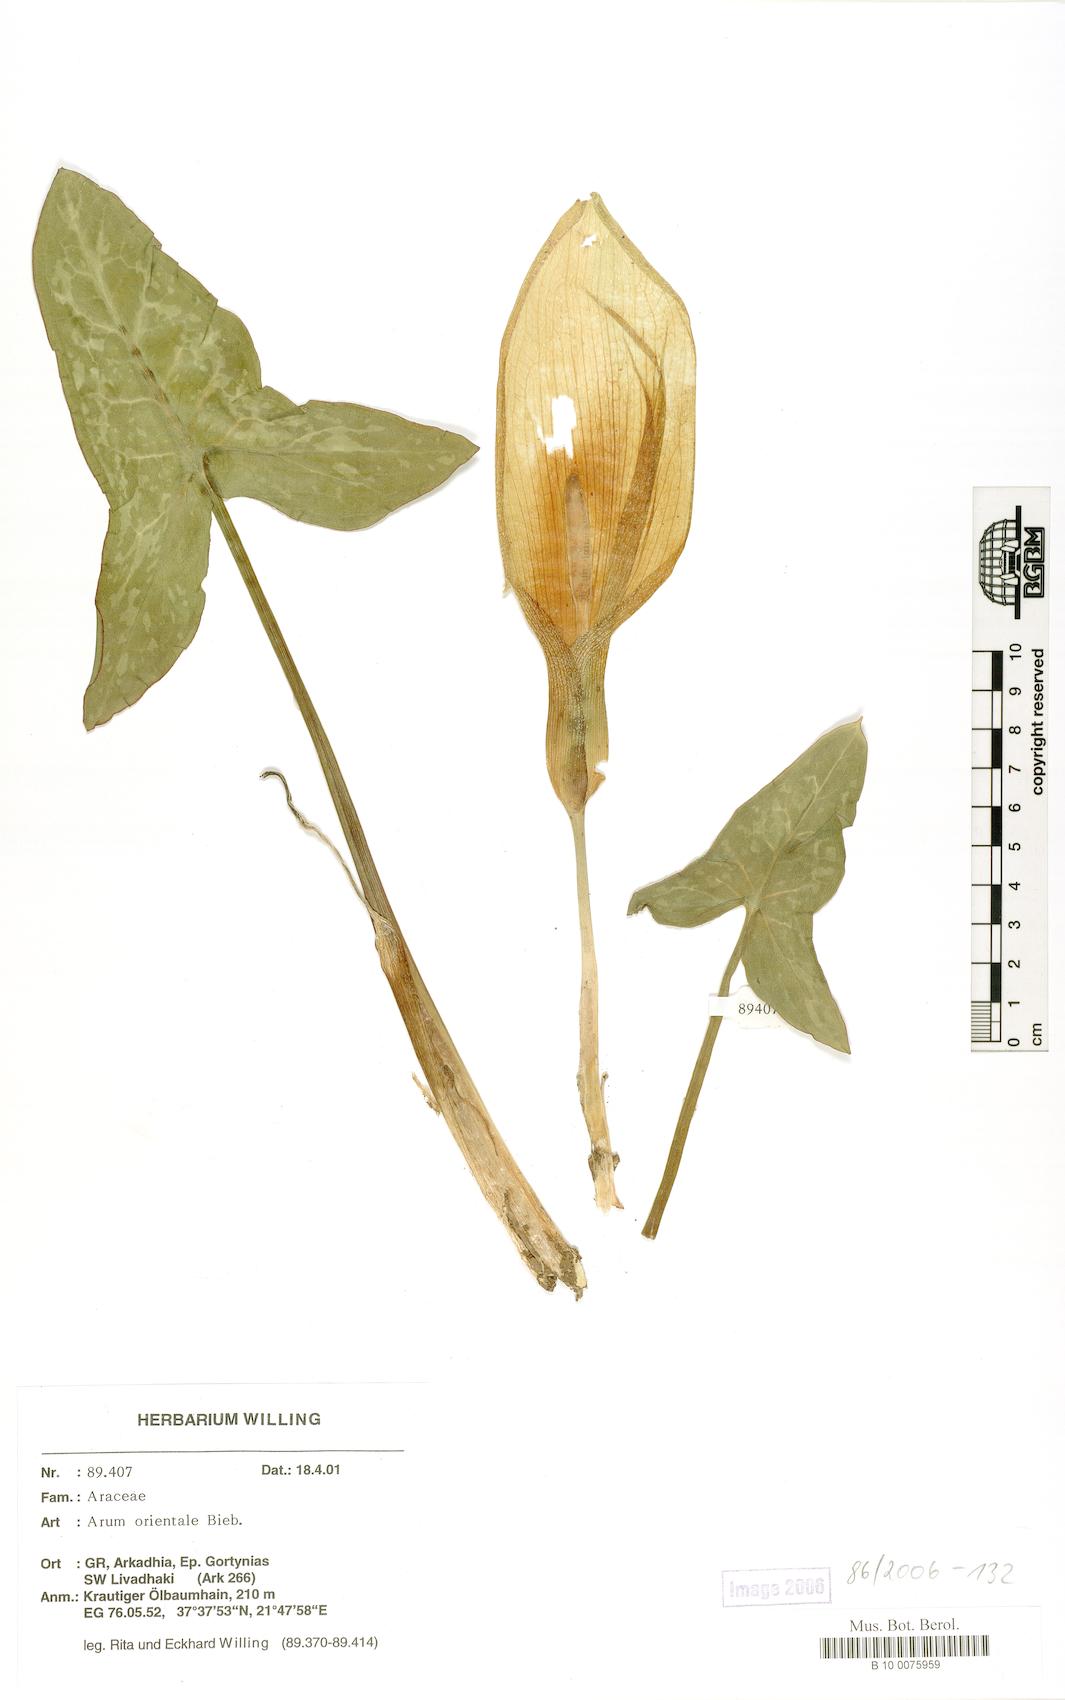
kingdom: Plantae
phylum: Tracheophyta
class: Liliopsida
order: Alismatales
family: Araceae
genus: Arum
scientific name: Arum orientale
